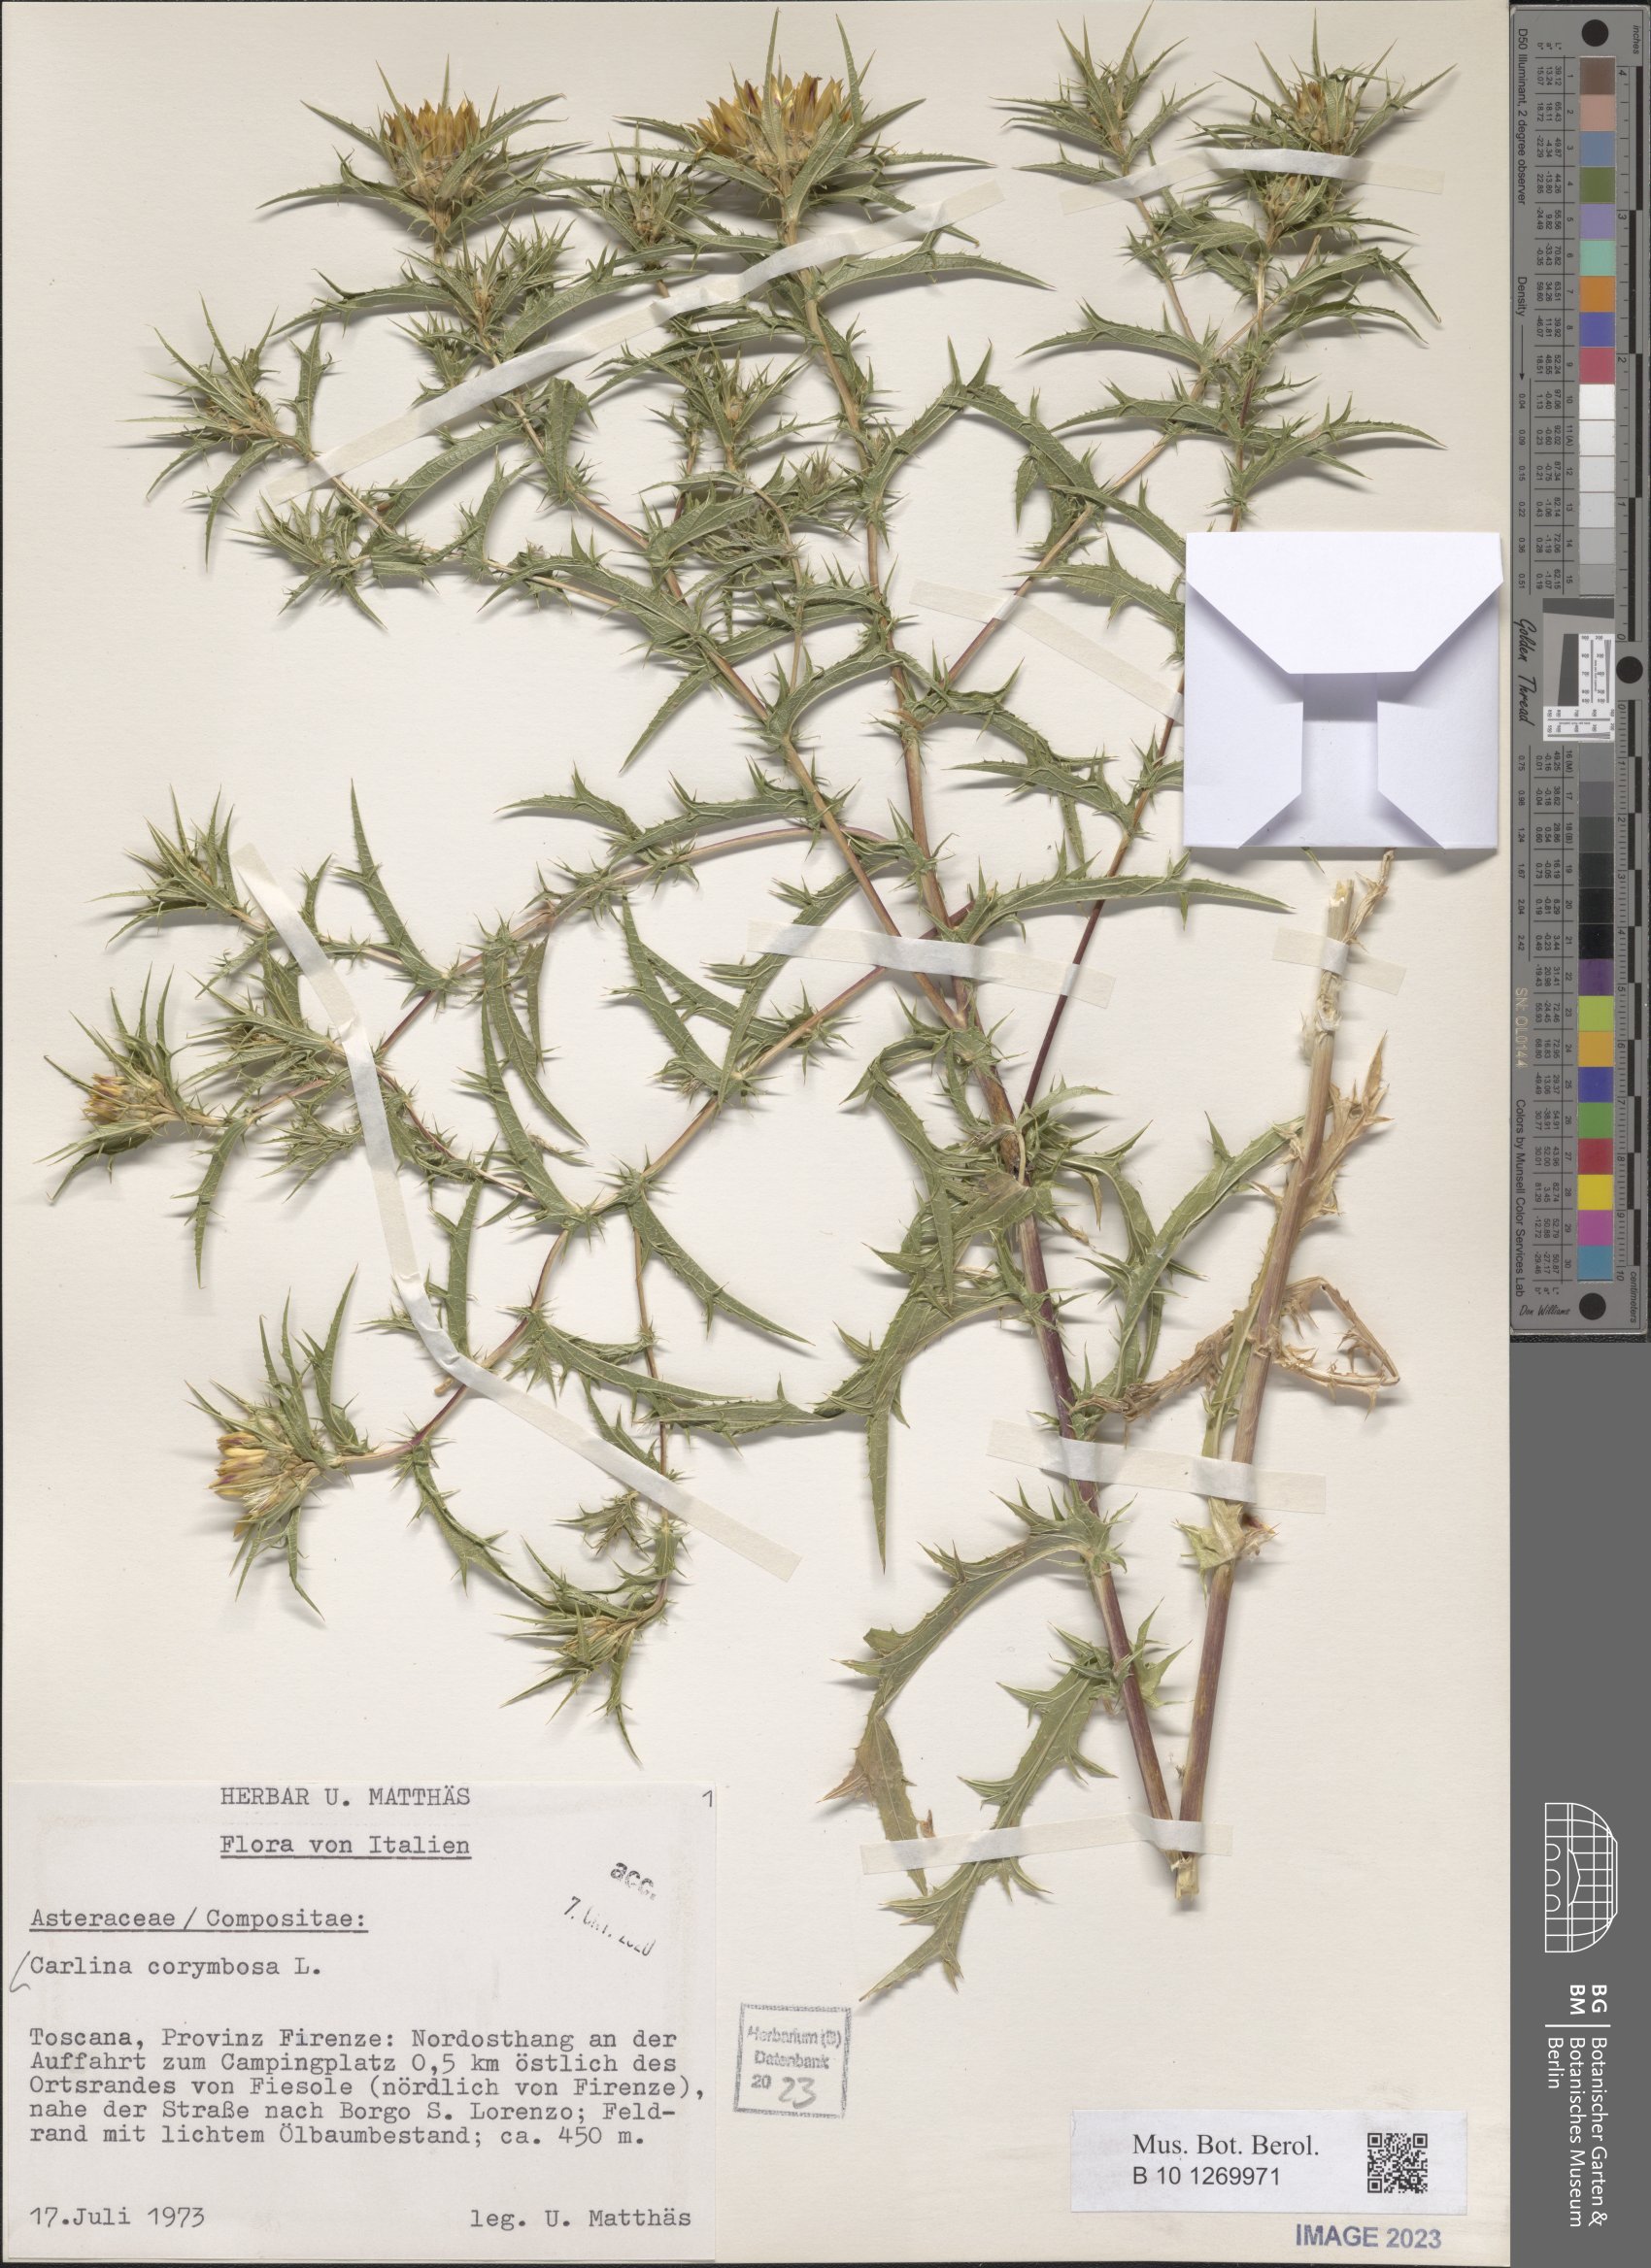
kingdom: Plantae
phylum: Tracheophyta
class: Magnoliopsida
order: Asterales
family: Asteraceae
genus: Carlina
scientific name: Carlina corymbosa
